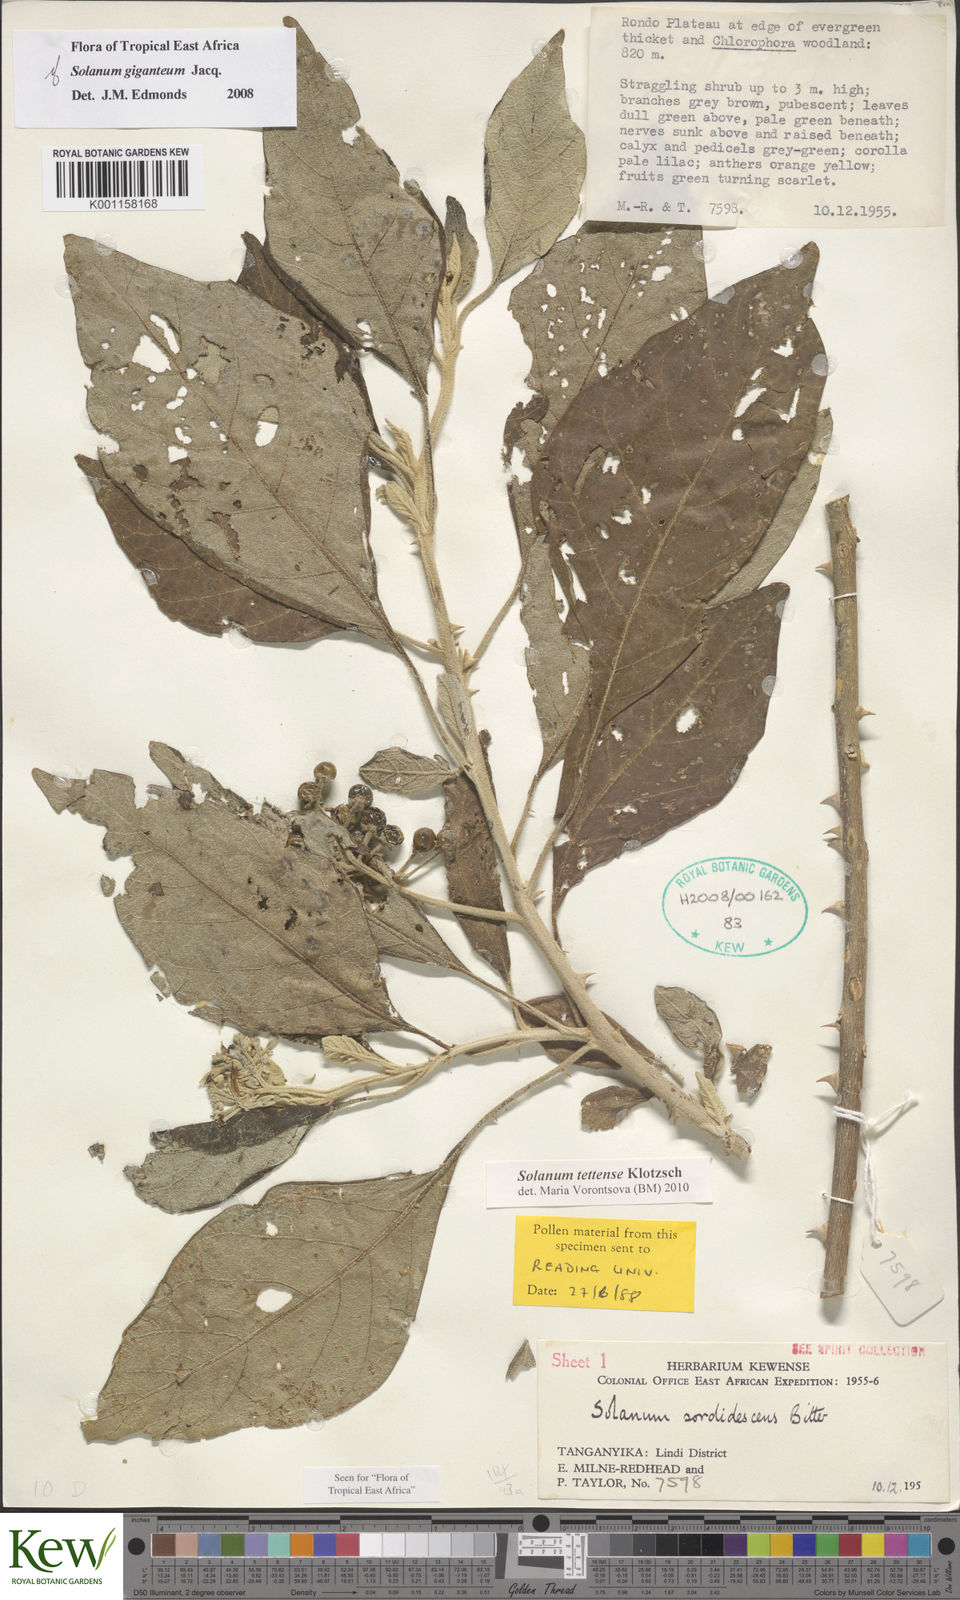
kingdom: Plantae
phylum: Tracheophyta
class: Magnoliopsida
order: Solanales
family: Solanaceae
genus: Solanum
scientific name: Solanum tettense
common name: Mozambique bitter apple
